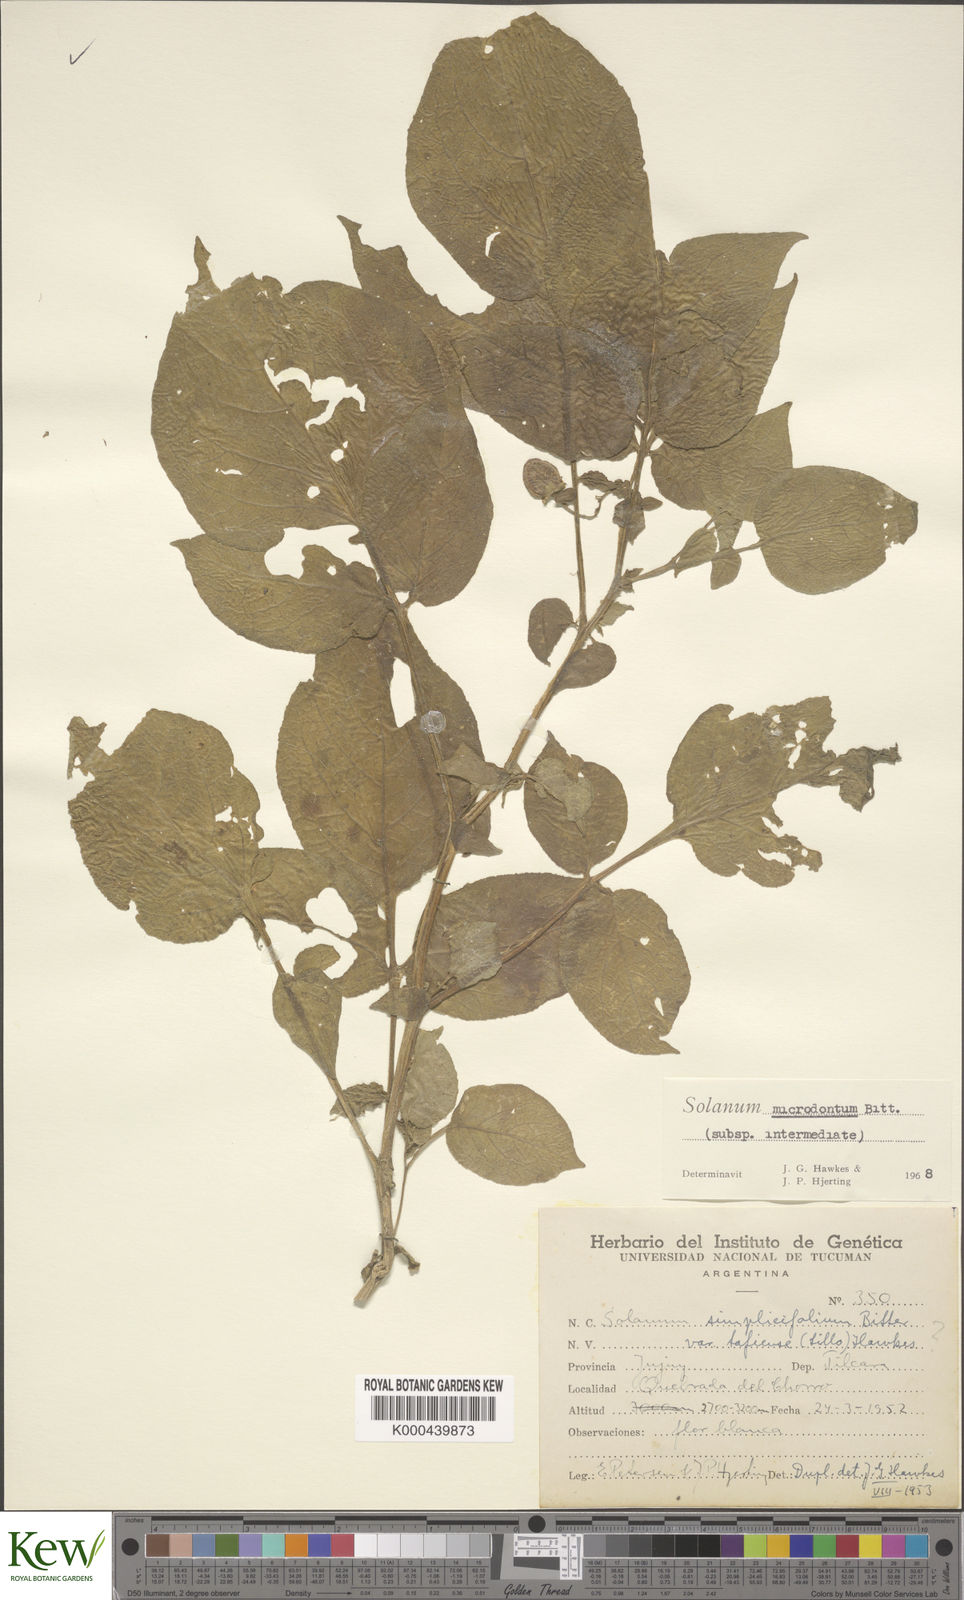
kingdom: Plantae
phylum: Tracheophyta
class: Magnoliopsida
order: Solanales
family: Solanaceae
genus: Solanum
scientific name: Solanum microdontum
